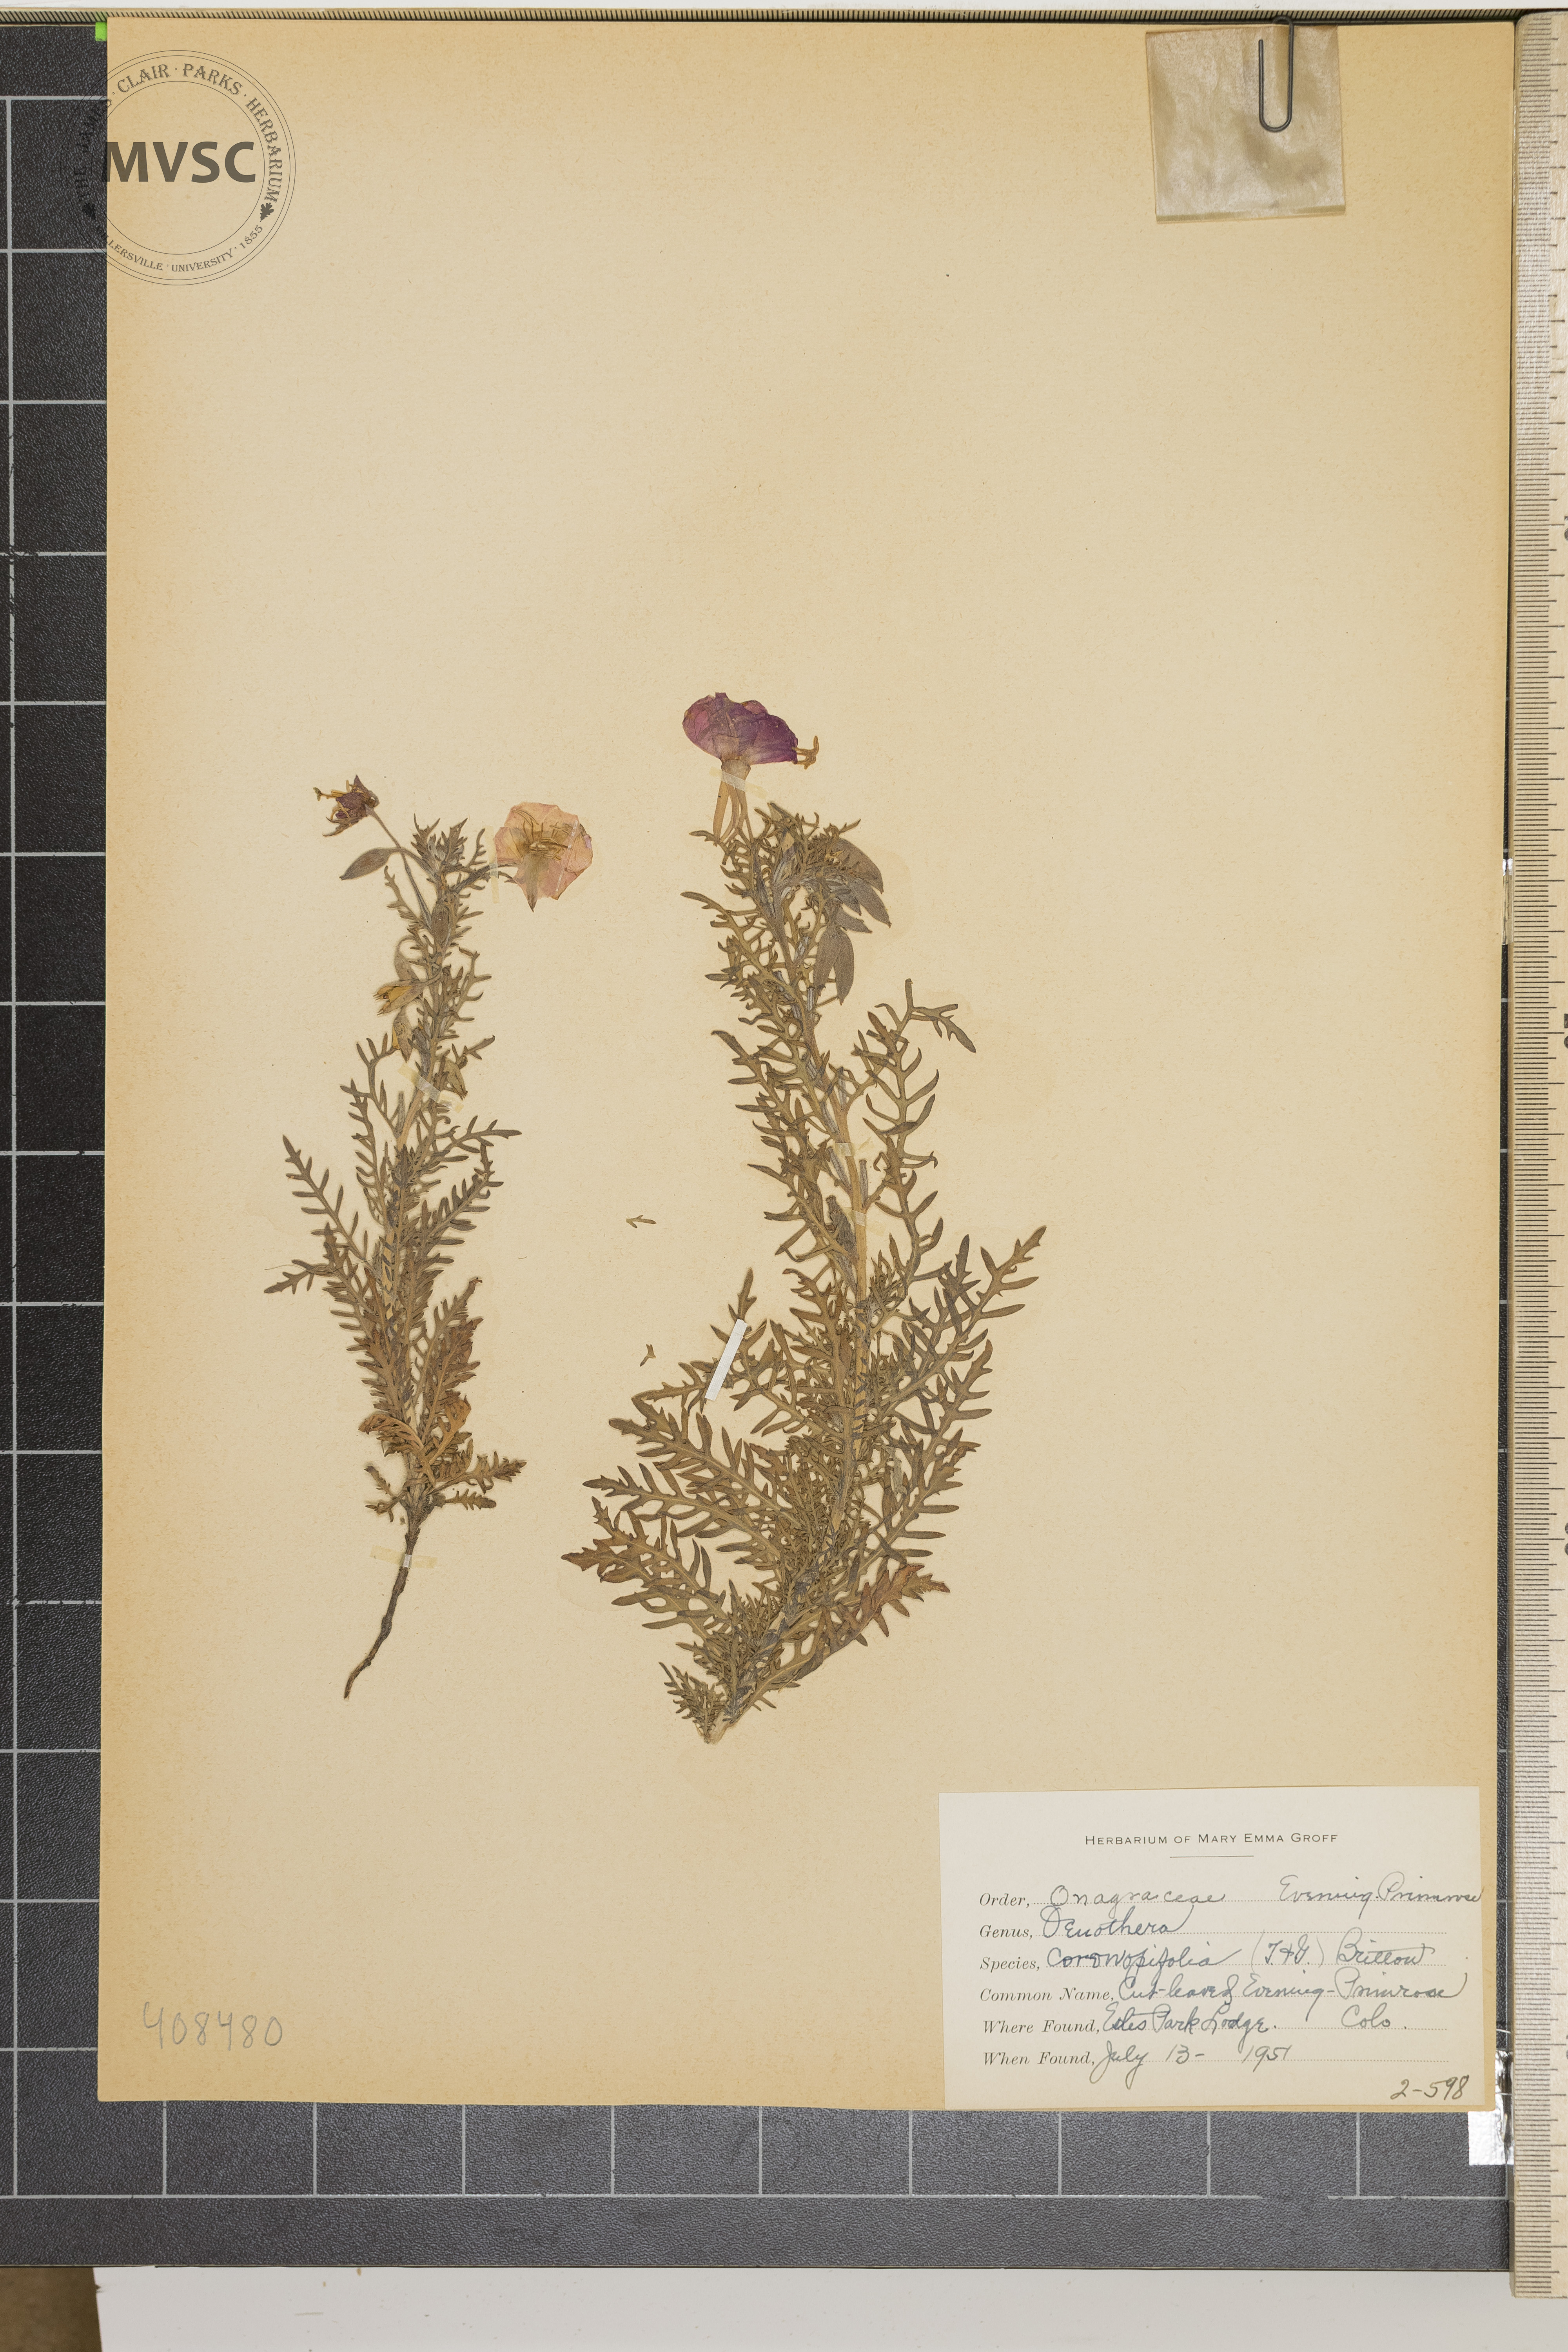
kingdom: Plantae
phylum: Tracheophyta
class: Magnoliopsida
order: Myrtales
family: Onagraceae
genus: Oenothera
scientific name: Oenothera coronopifolia
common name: Cut-Leaved Evening Primrose
